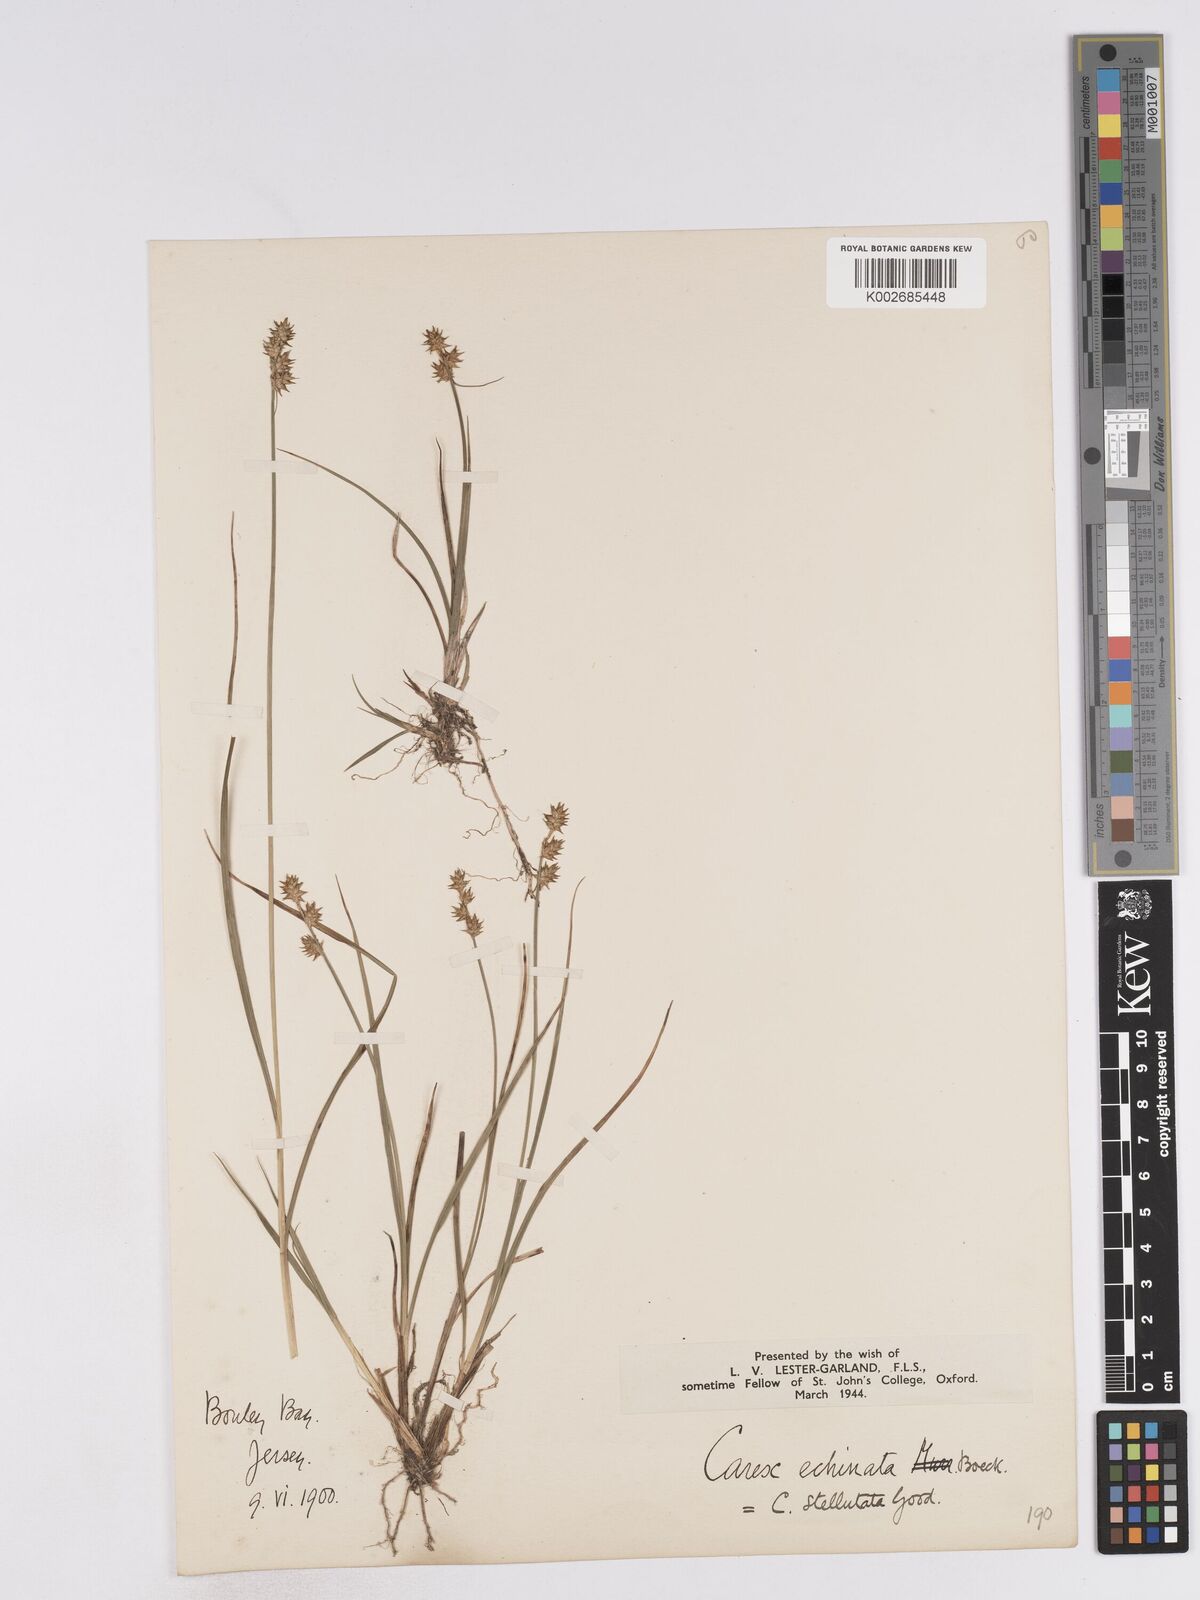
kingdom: Plantae
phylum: Tracheophyta
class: Liliopsida
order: Poales
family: Cyperaceae
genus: Carex
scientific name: Carex echinata
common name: Star sedge
